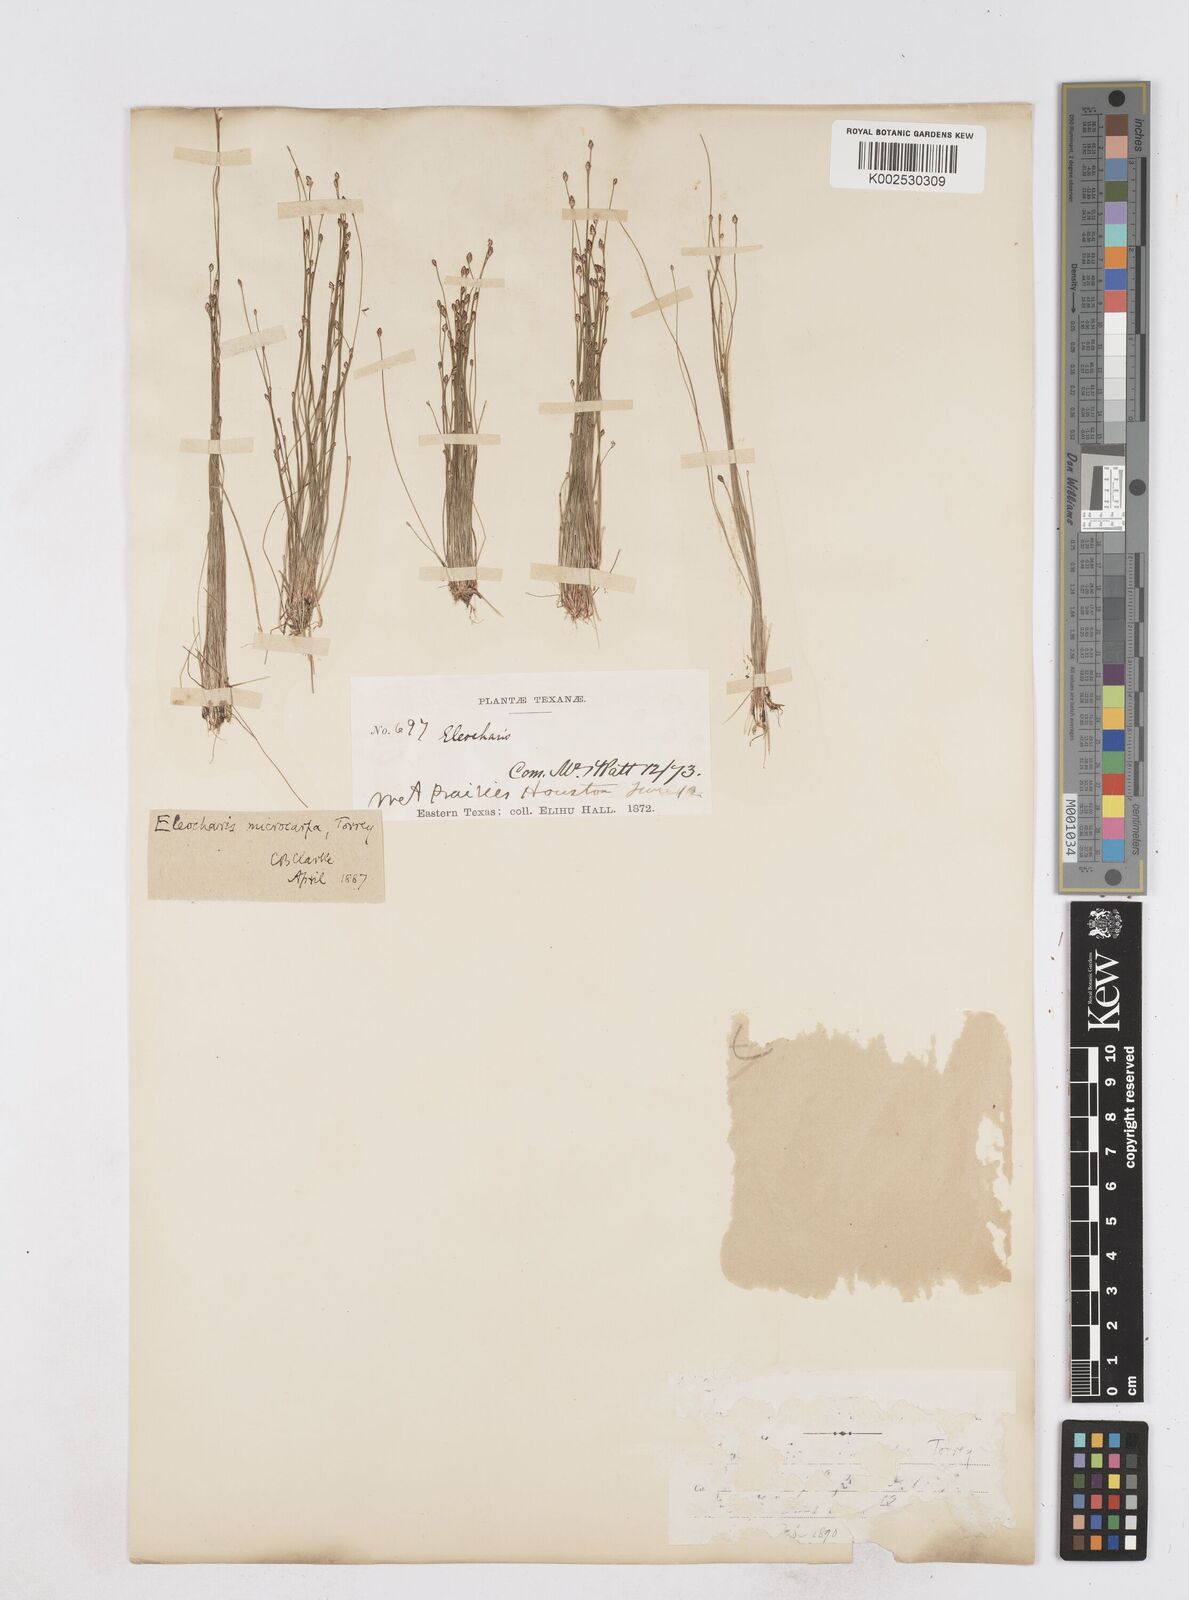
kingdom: Plantae
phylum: Tracheophyta
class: Liliopsida
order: Poales
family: Cyperaceae
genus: Eleocharis
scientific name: Eleocharis microcarpa
